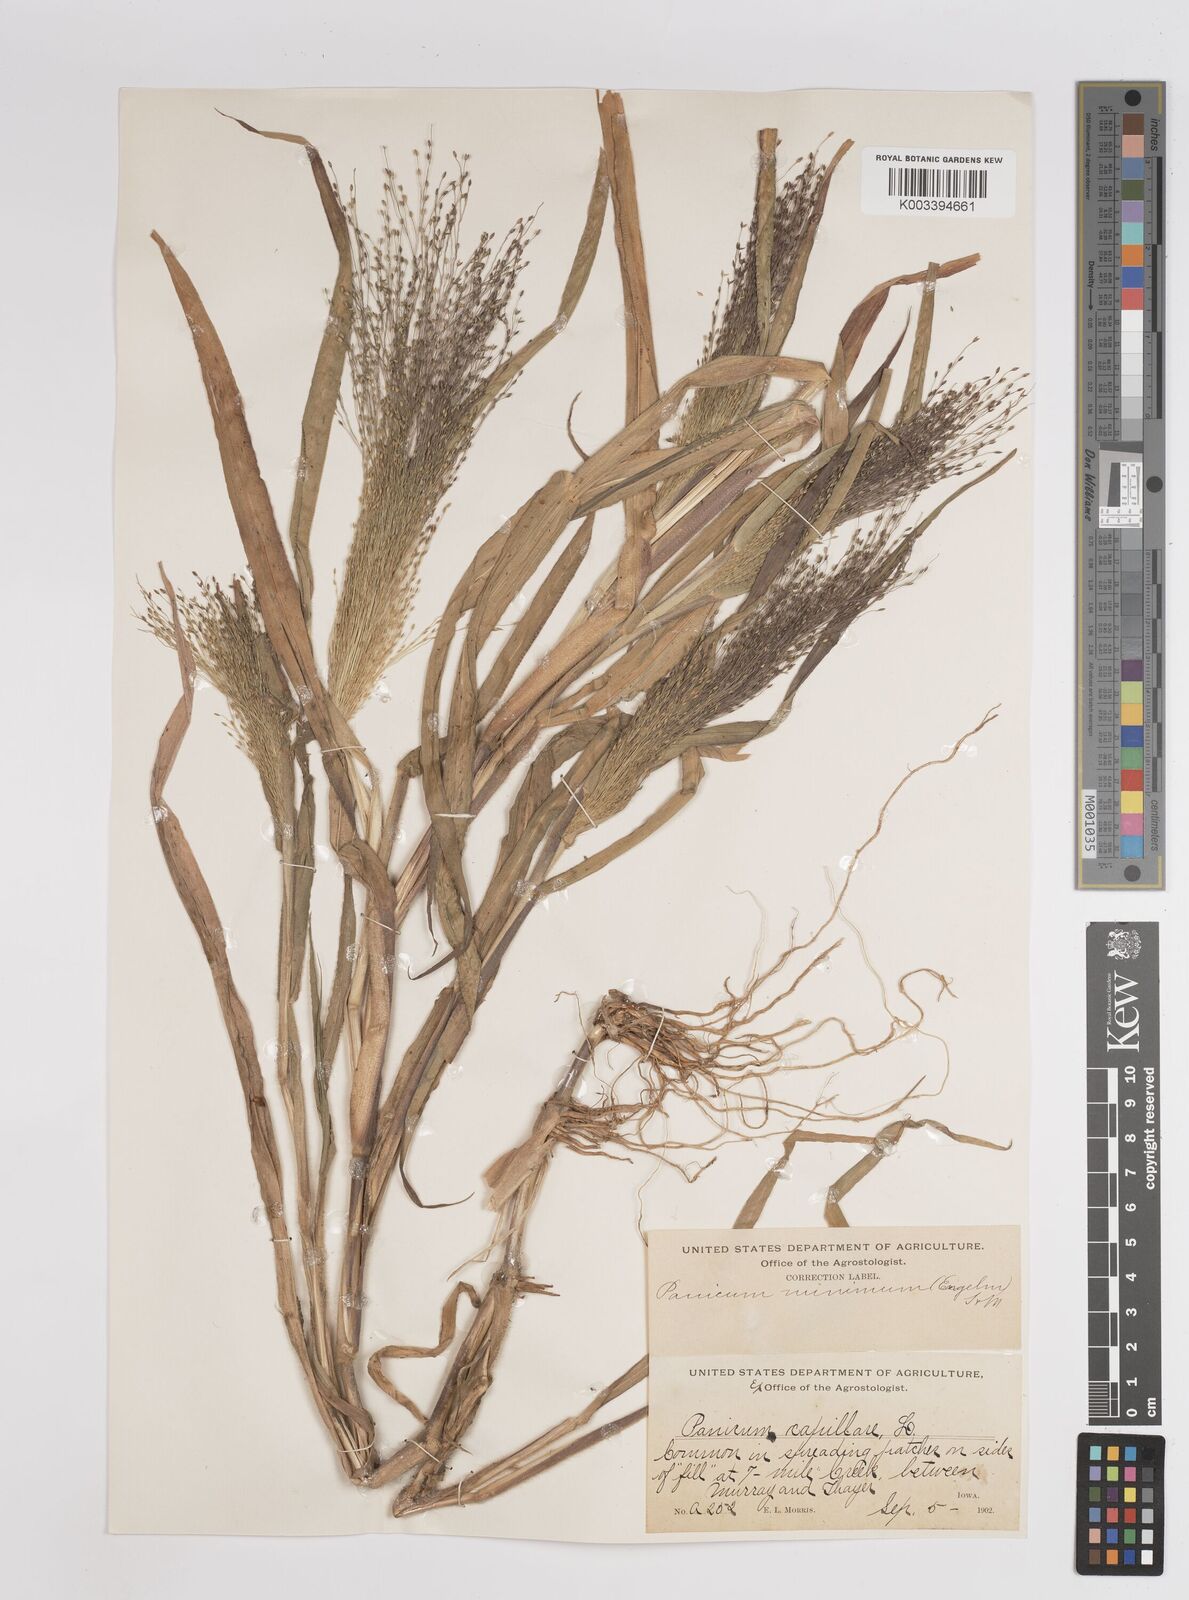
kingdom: Plantae
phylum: Tracheophyta
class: Liliopsida
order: Poales
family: Poaceae
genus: Panicum
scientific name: Panicum capillare
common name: Witch-grass
